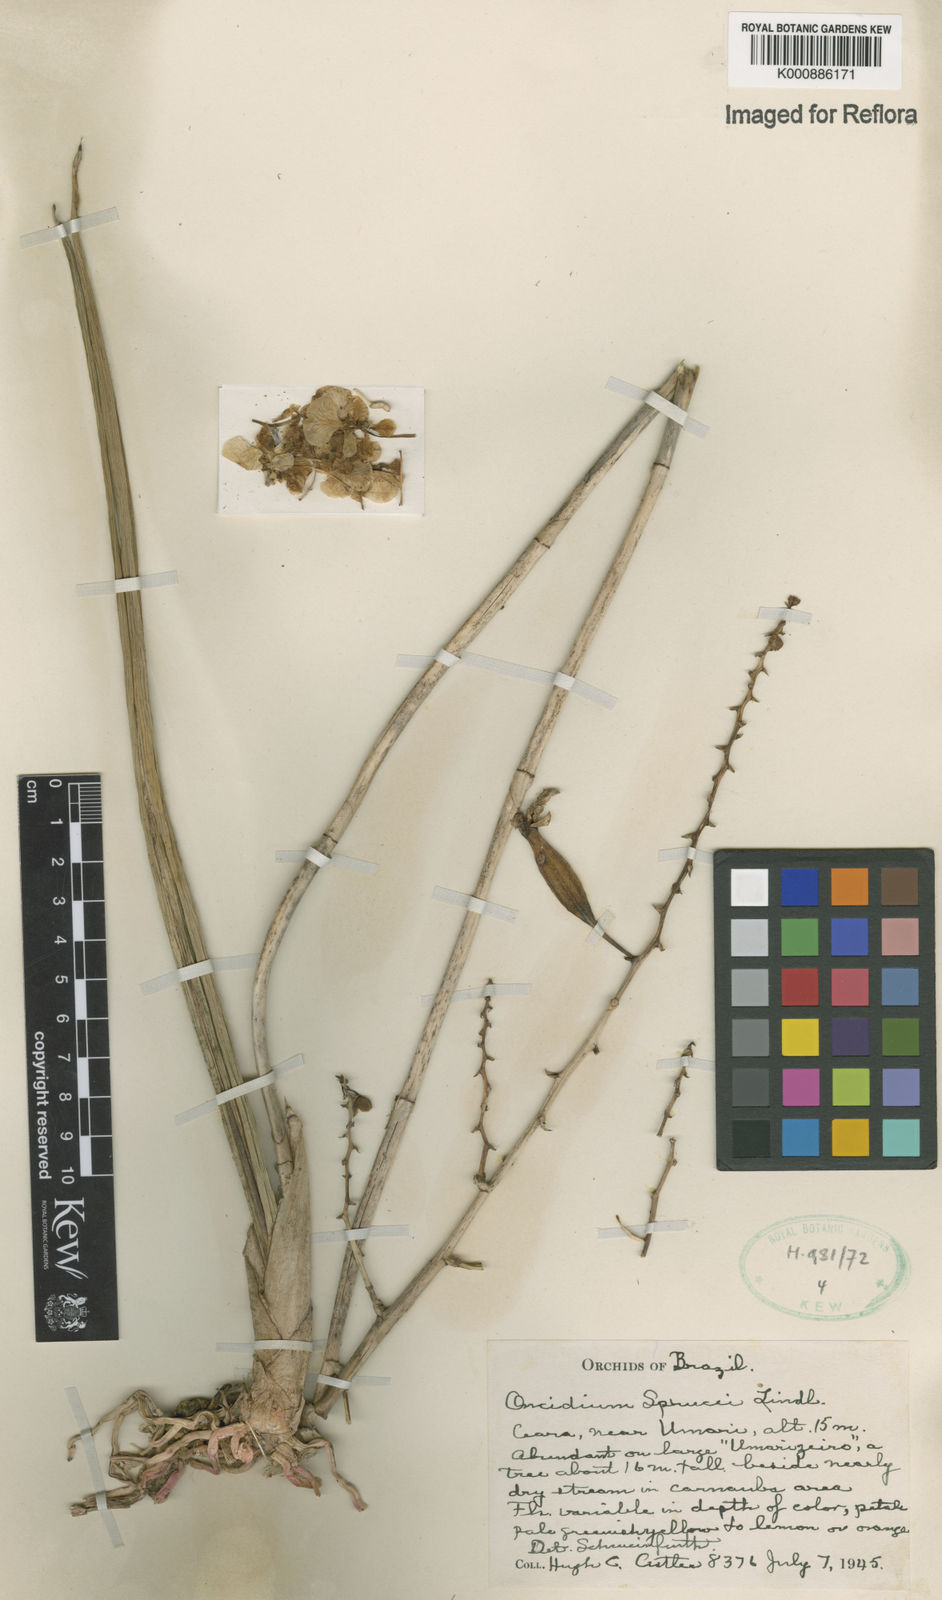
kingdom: Plantae
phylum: Tracheophyta
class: Liliopsida
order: Asparagales
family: Orchidaceae
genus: Trichocentrum
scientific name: Trichocentrum cebolleta
